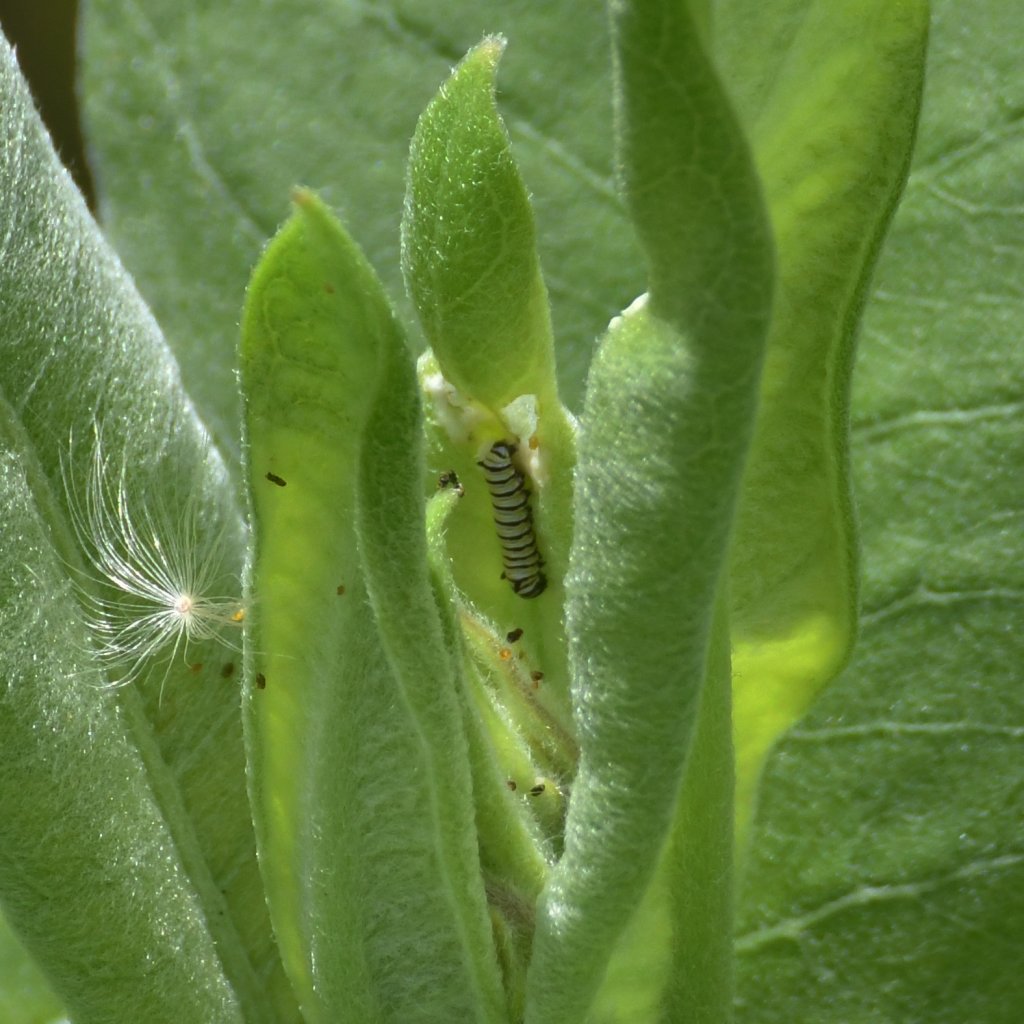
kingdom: Animalia
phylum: Arthropoda
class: Insecta
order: Lepidoptera
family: Nymphalidae
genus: Danaus
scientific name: Danaus plexippus
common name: Monarch
